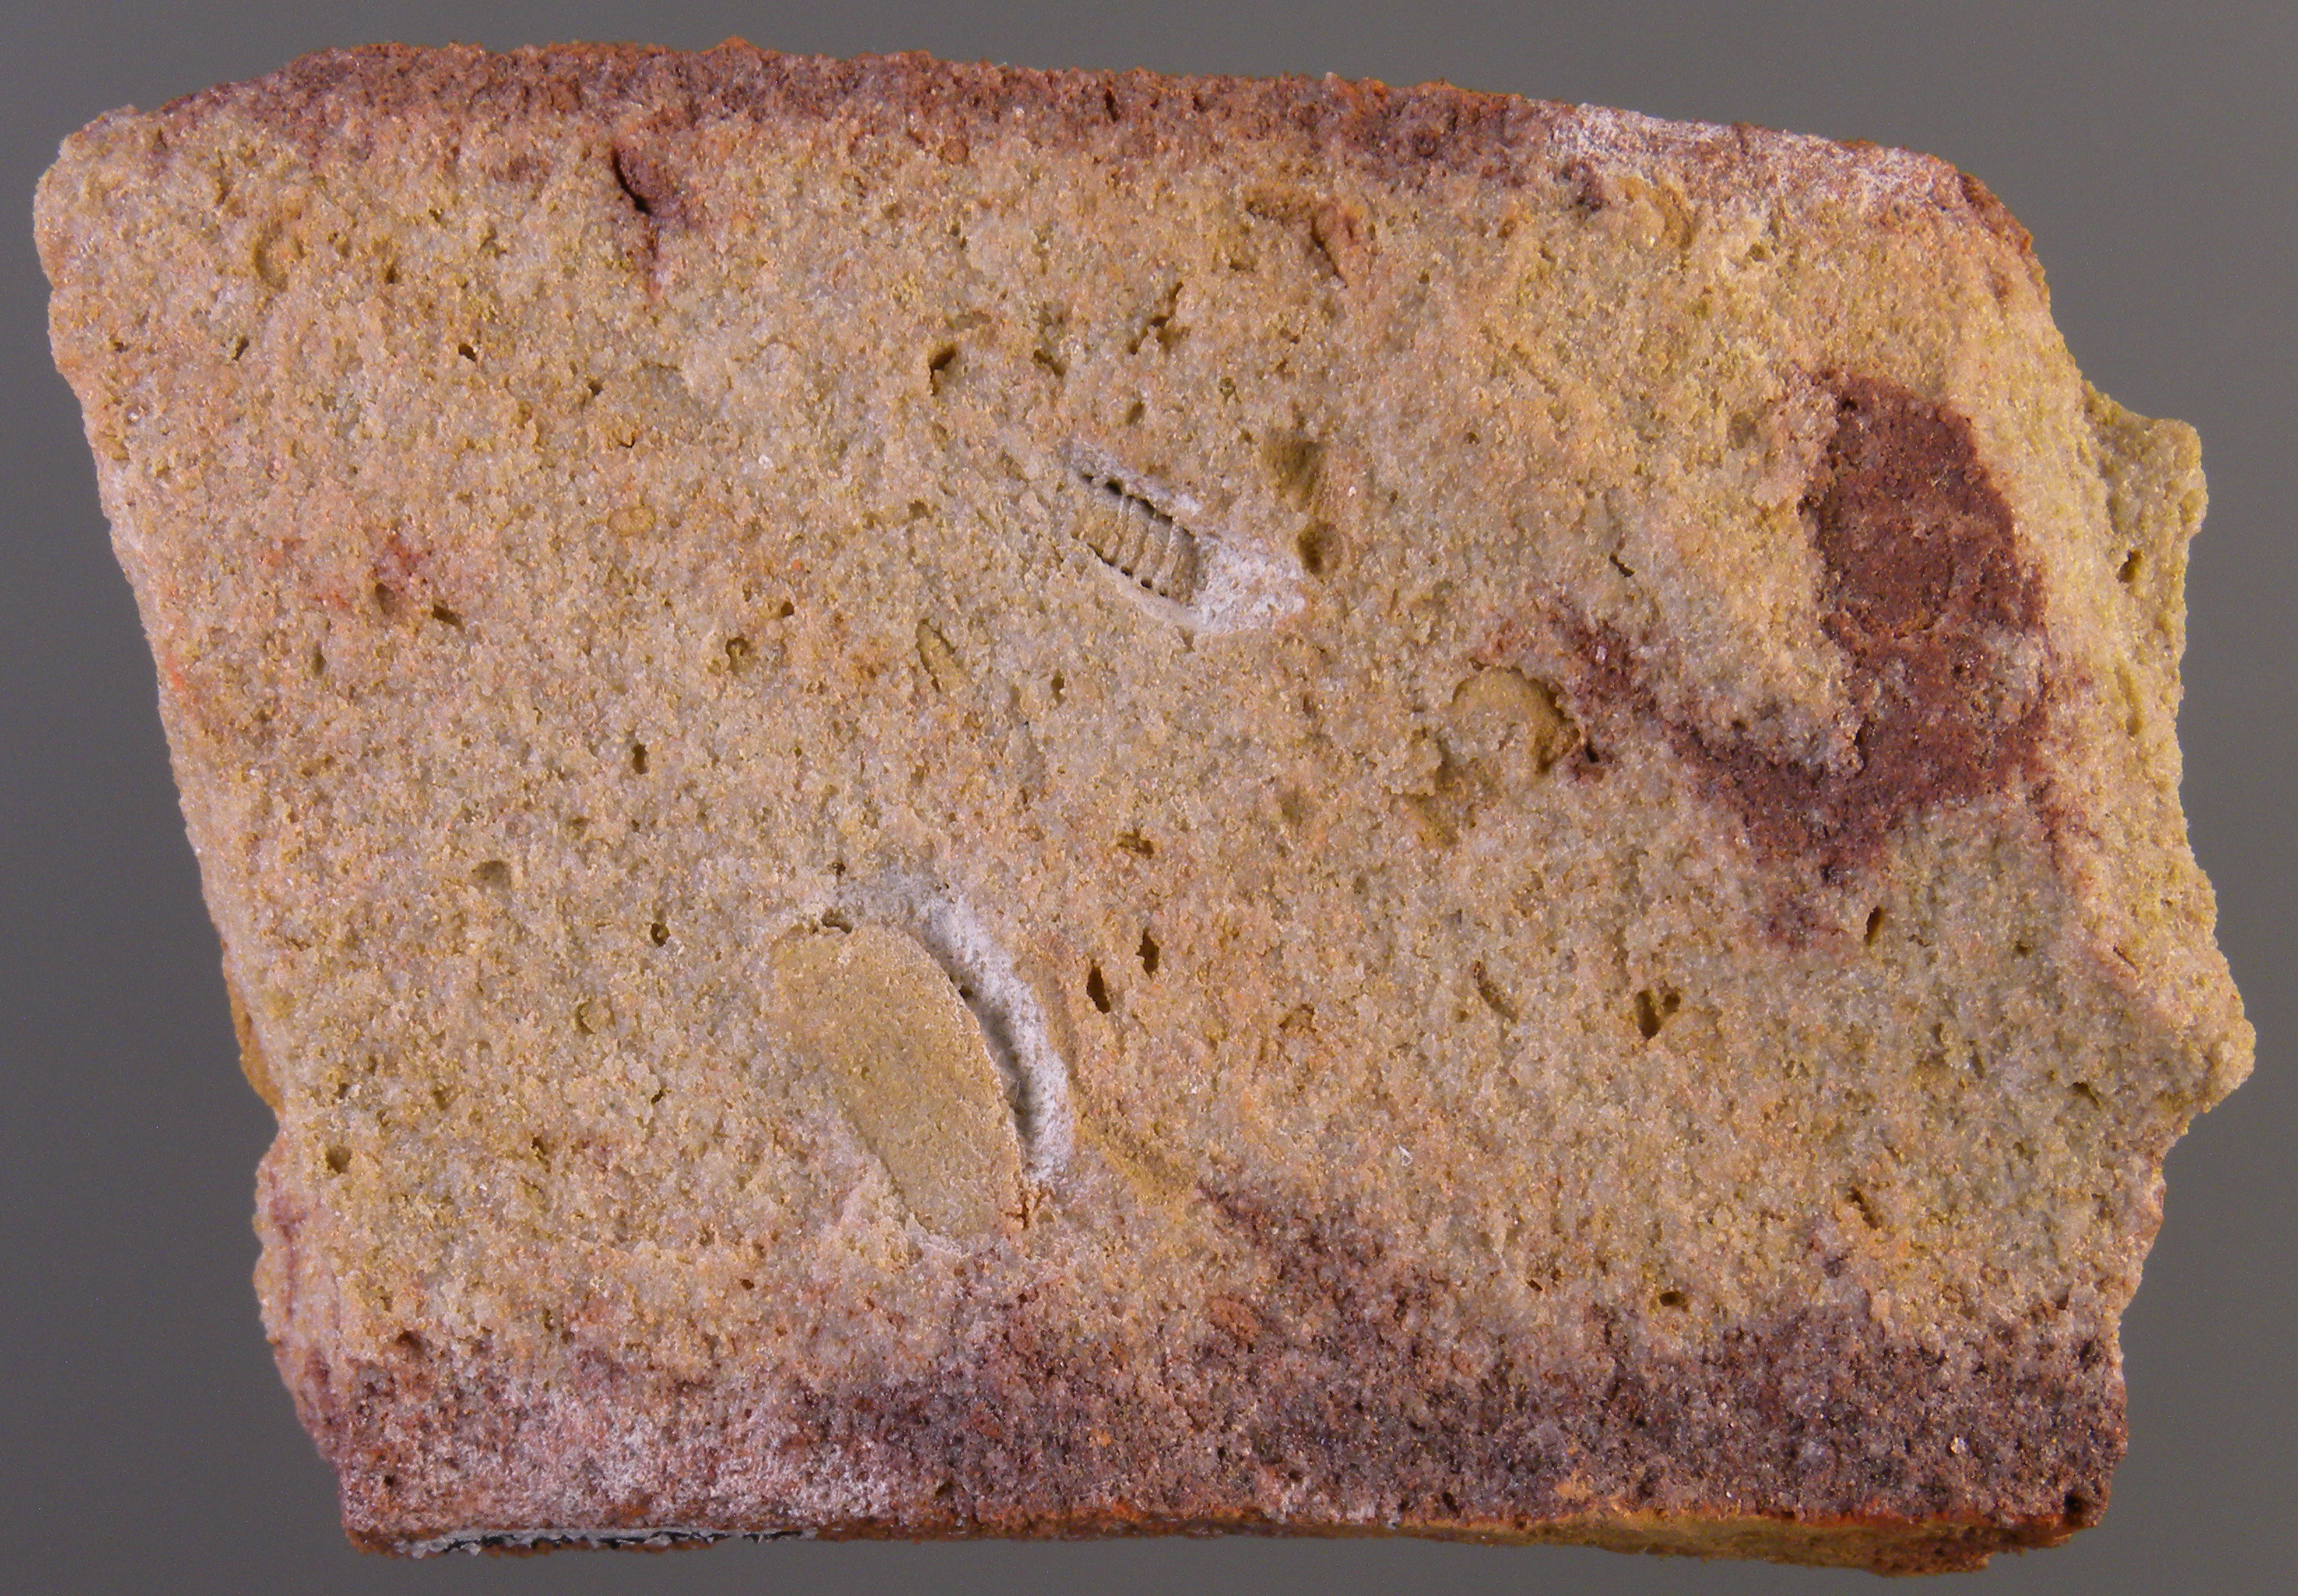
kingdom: Animalia
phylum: Mollusca
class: Bivalvia
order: Modiomorphida
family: Modiomorphidae
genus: Goniophora
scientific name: Goniophora
